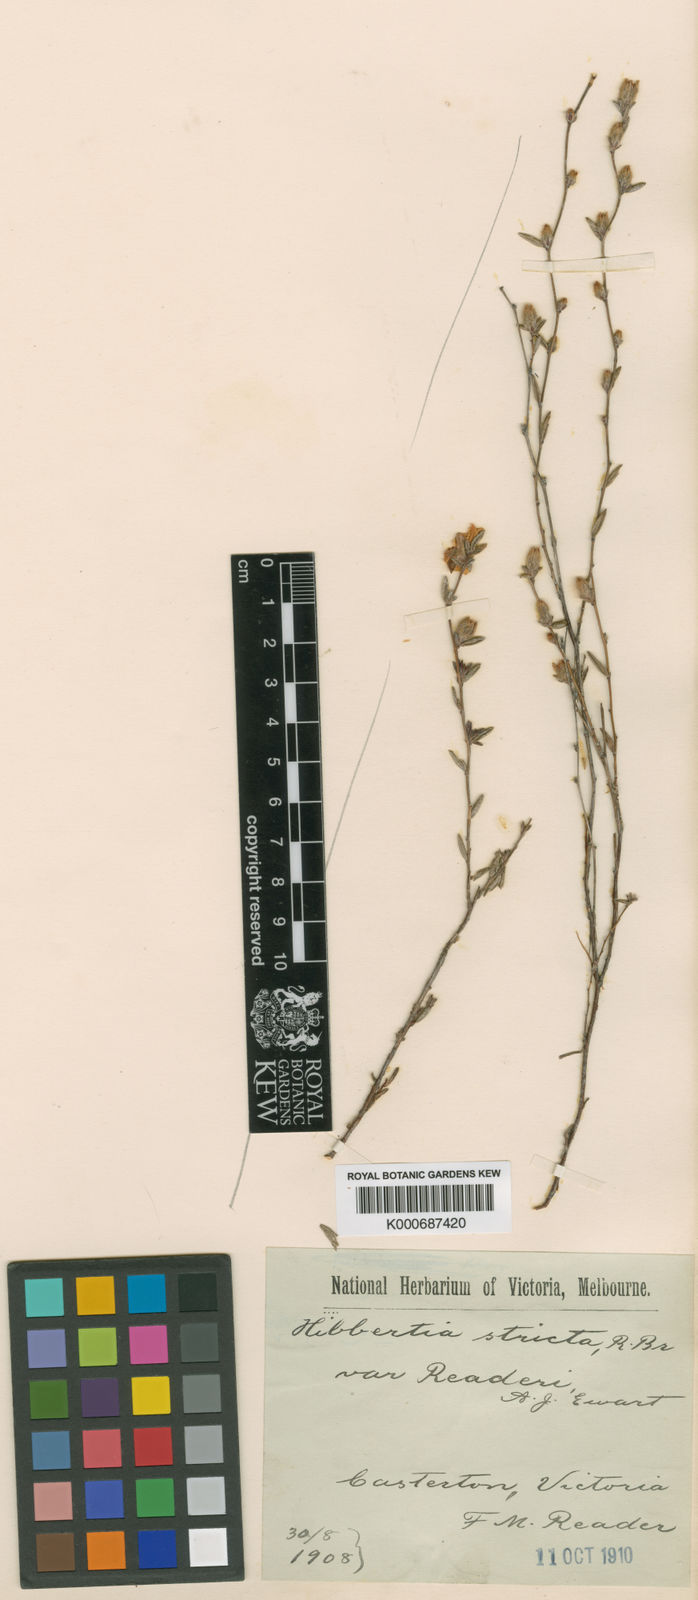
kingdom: Plantae
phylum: Tracheophyta
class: Magnoliopsida
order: Dilleniales
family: Dilleniaceae
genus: Hibbertia
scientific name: Hibbertia stricta
